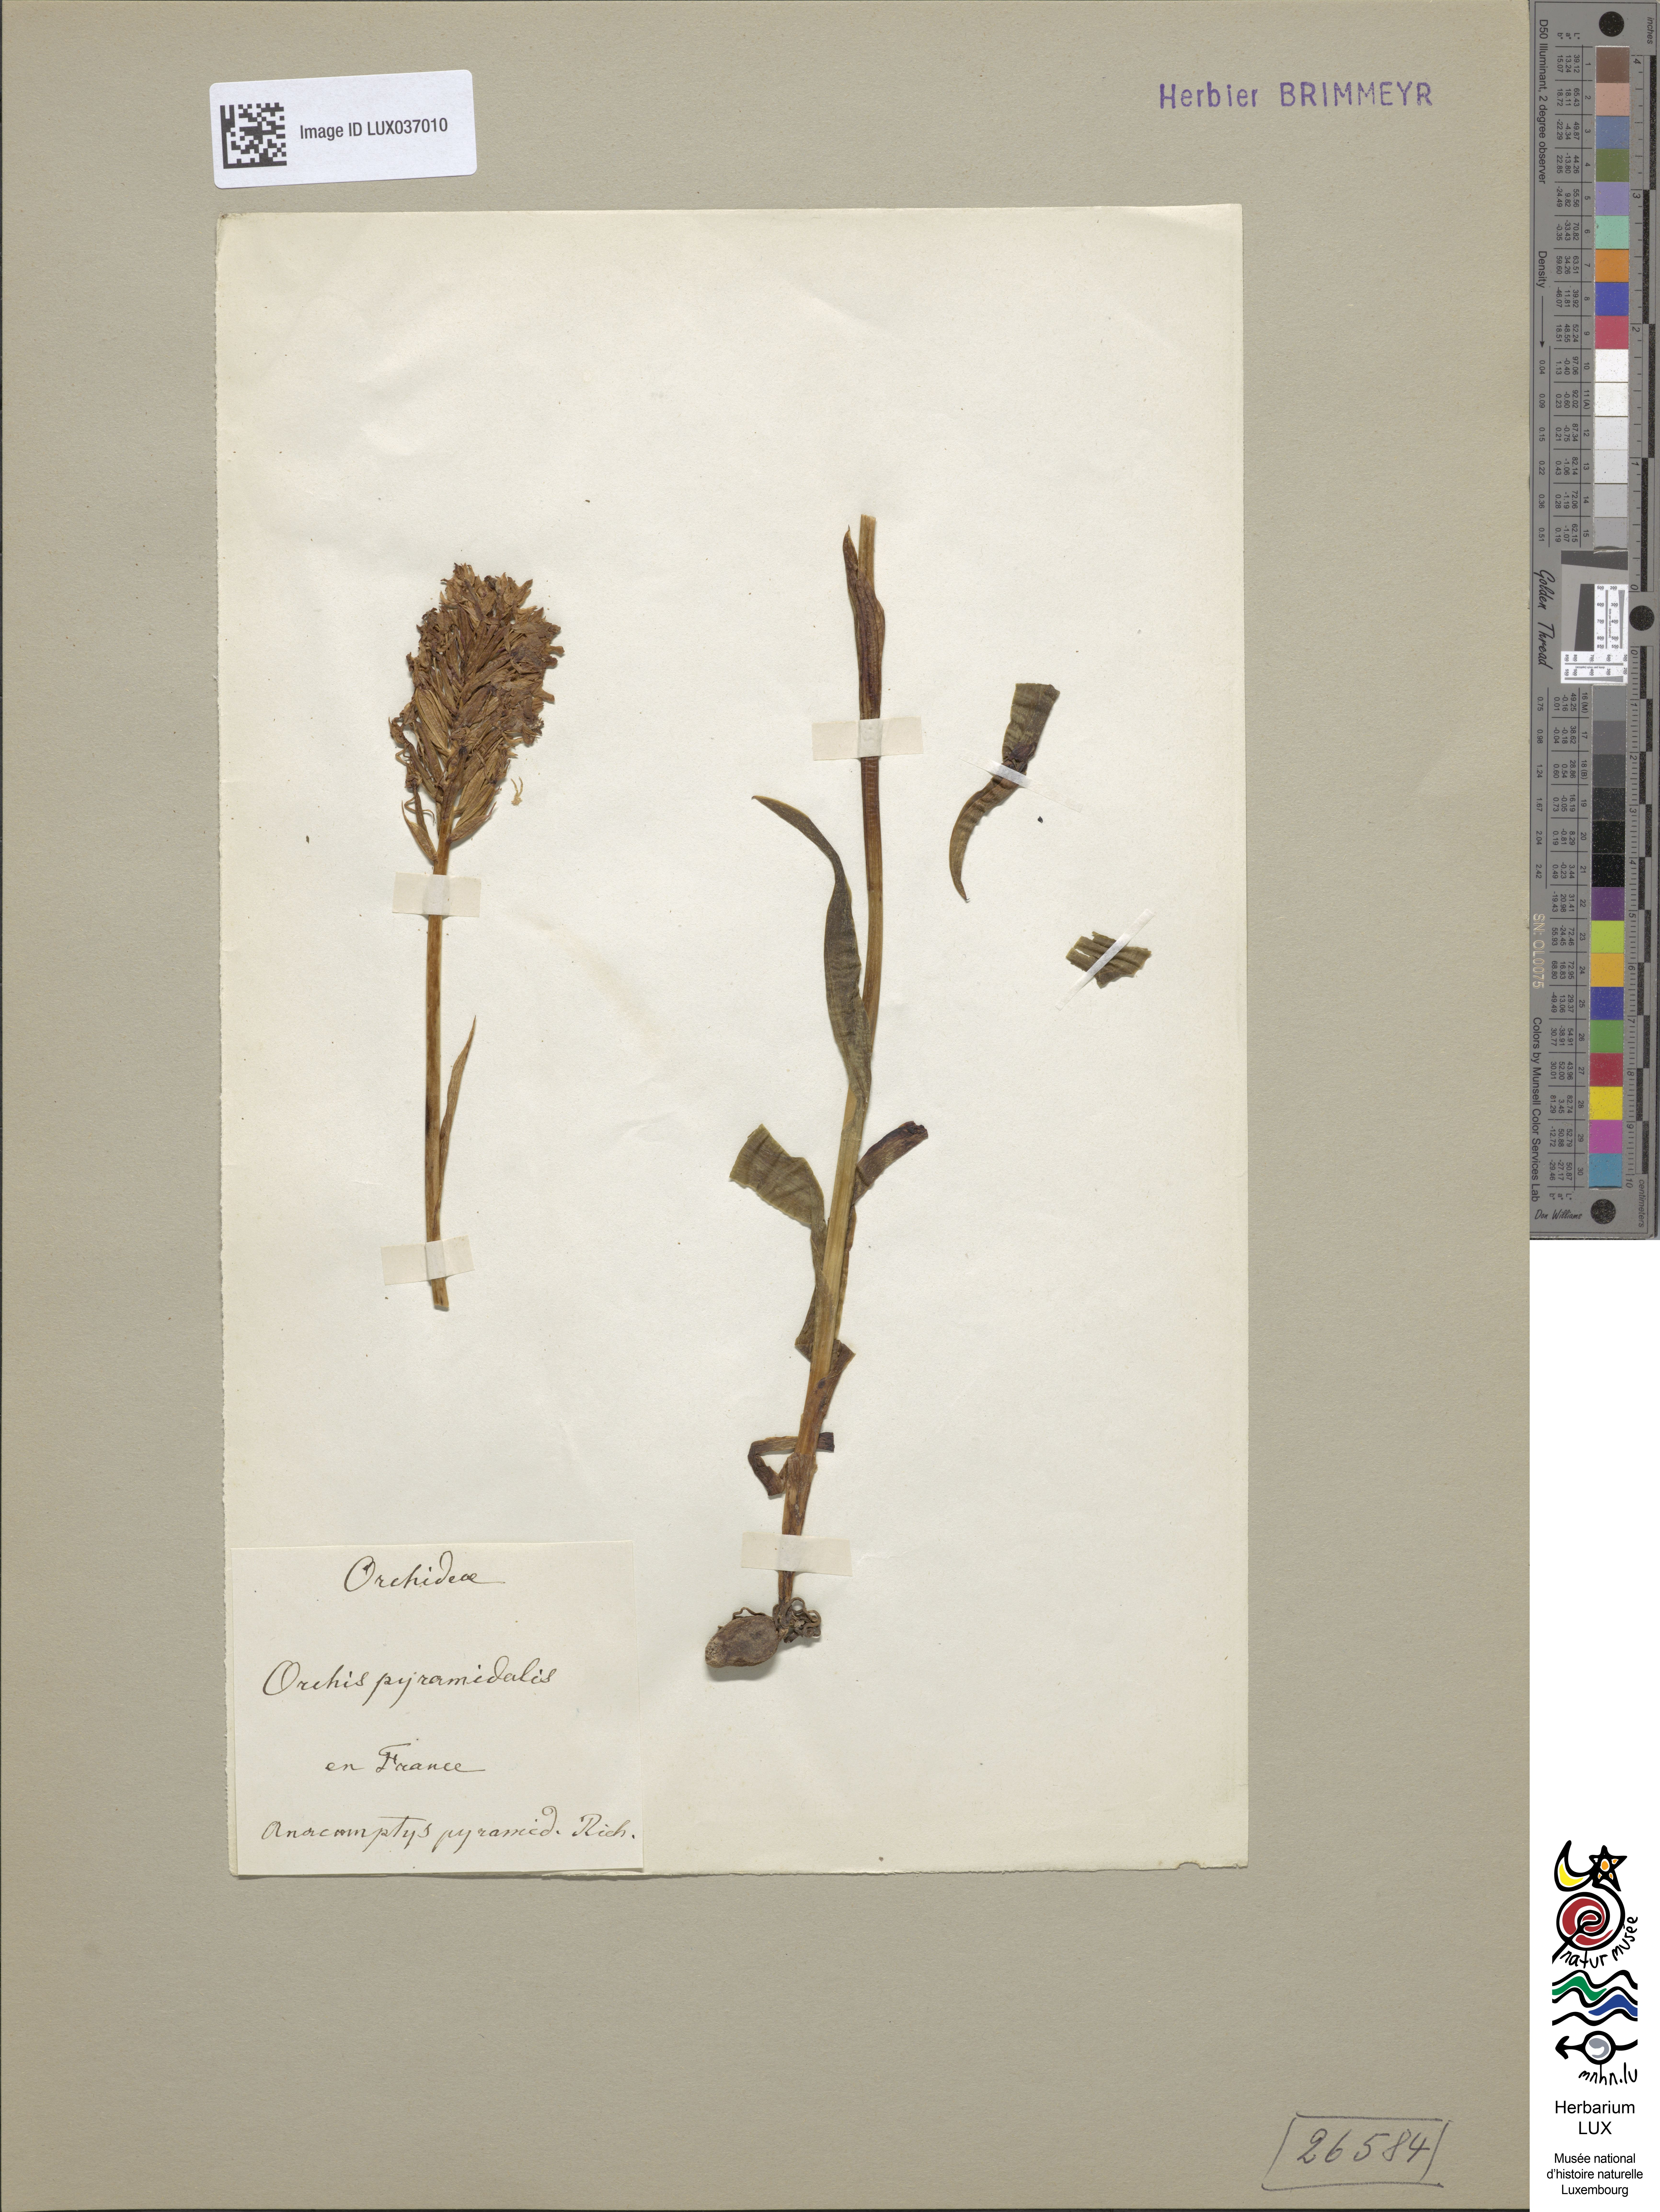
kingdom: Plantae
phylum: Tracheophyta
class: Liliopsida
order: Asparagales
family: Orchidaceae
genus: Anacamptis
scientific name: Anacamptis pyramidalis
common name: Pyramidal orchid
